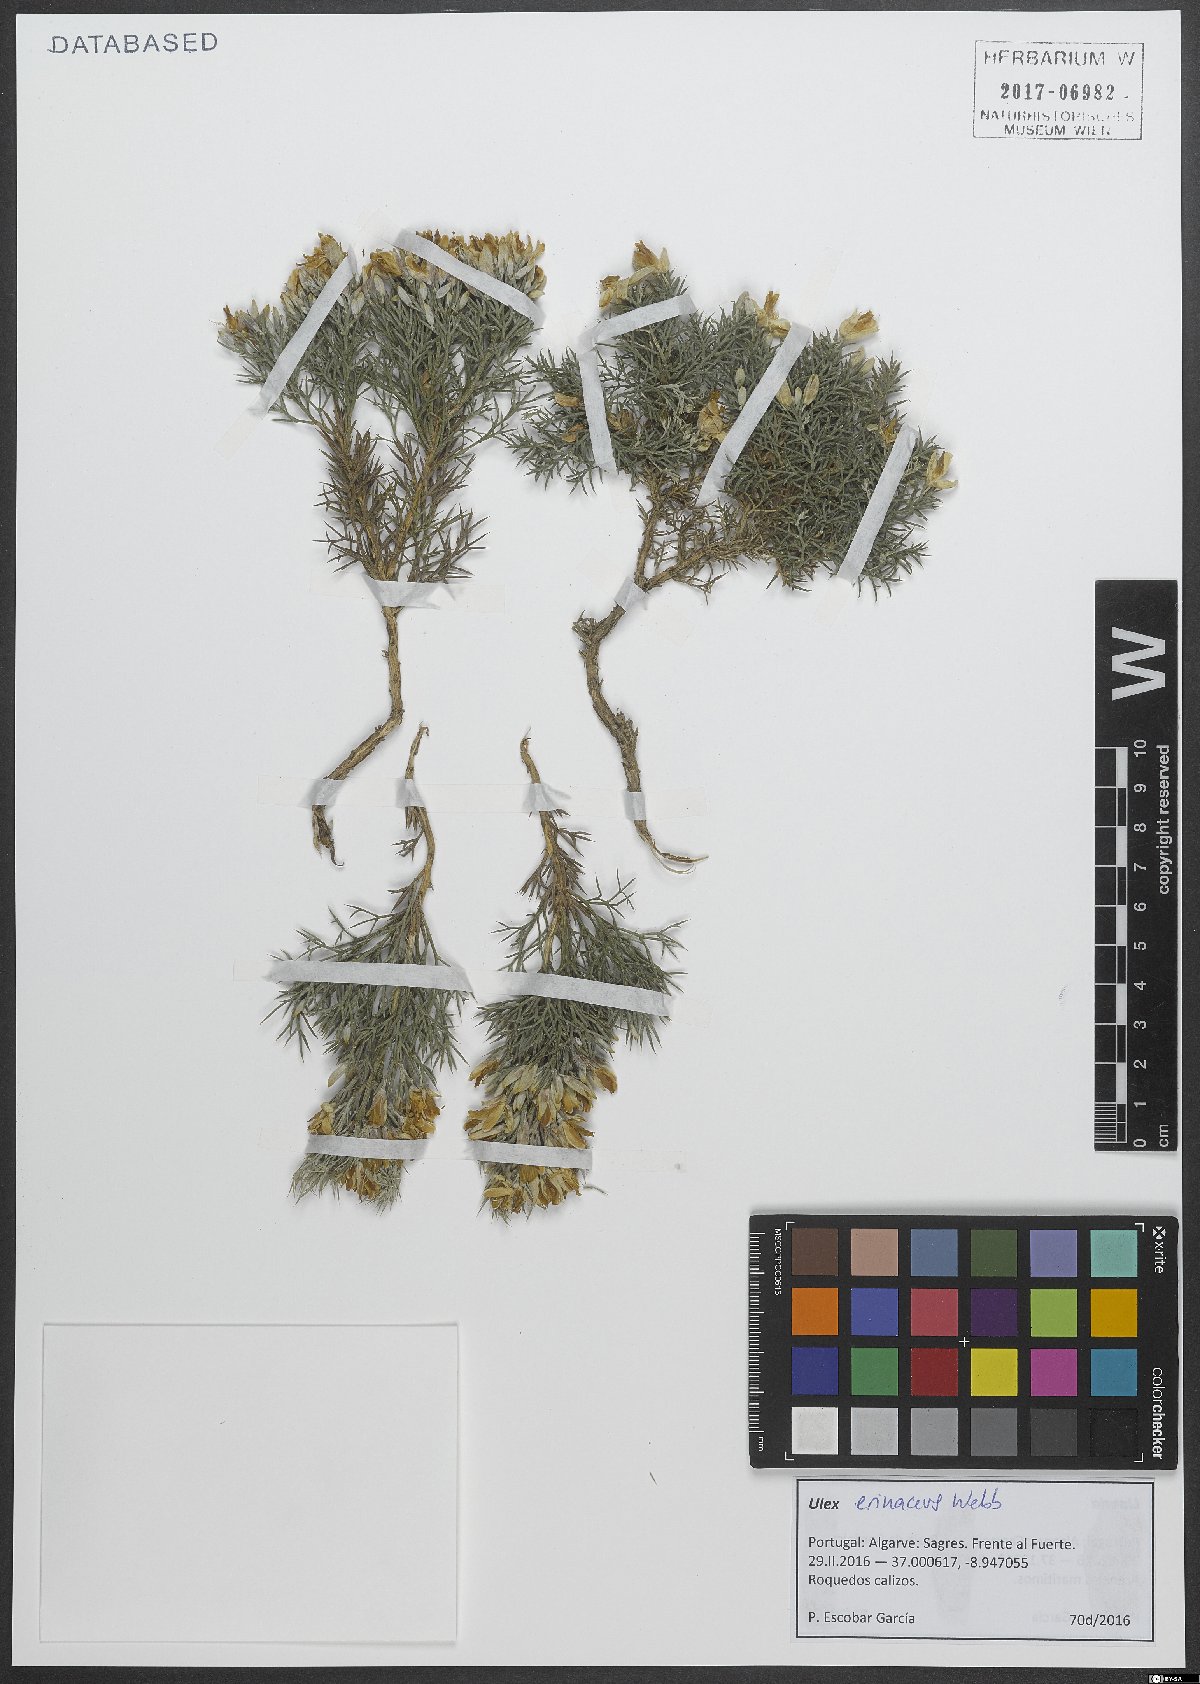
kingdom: Plantae
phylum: Tracheophyta
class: Magnoliopsida
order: Fabales
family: Fabaceae
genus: Ulex
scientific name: Ulex erinaceus
